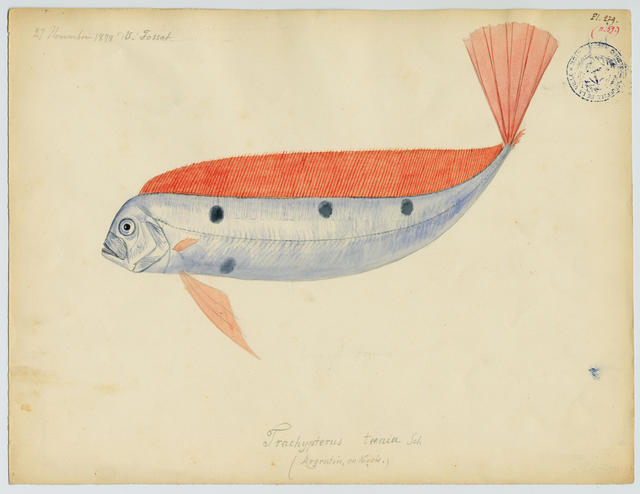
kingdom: Animalia
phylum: Chordata
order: Lampriformes
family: Trachipteridae
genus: Trachipterus
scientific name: Trachipterus trachypterus
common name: Dealfish
